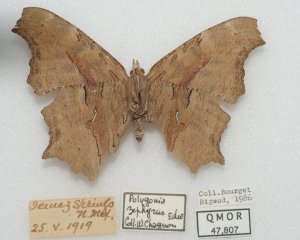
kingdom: Animalia
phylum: Arthropoda
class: Insecta
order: Lepidoptera
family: Nymphalidae
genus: Polygonia
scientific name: Polygonia gracilis
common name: Hoary Comma
